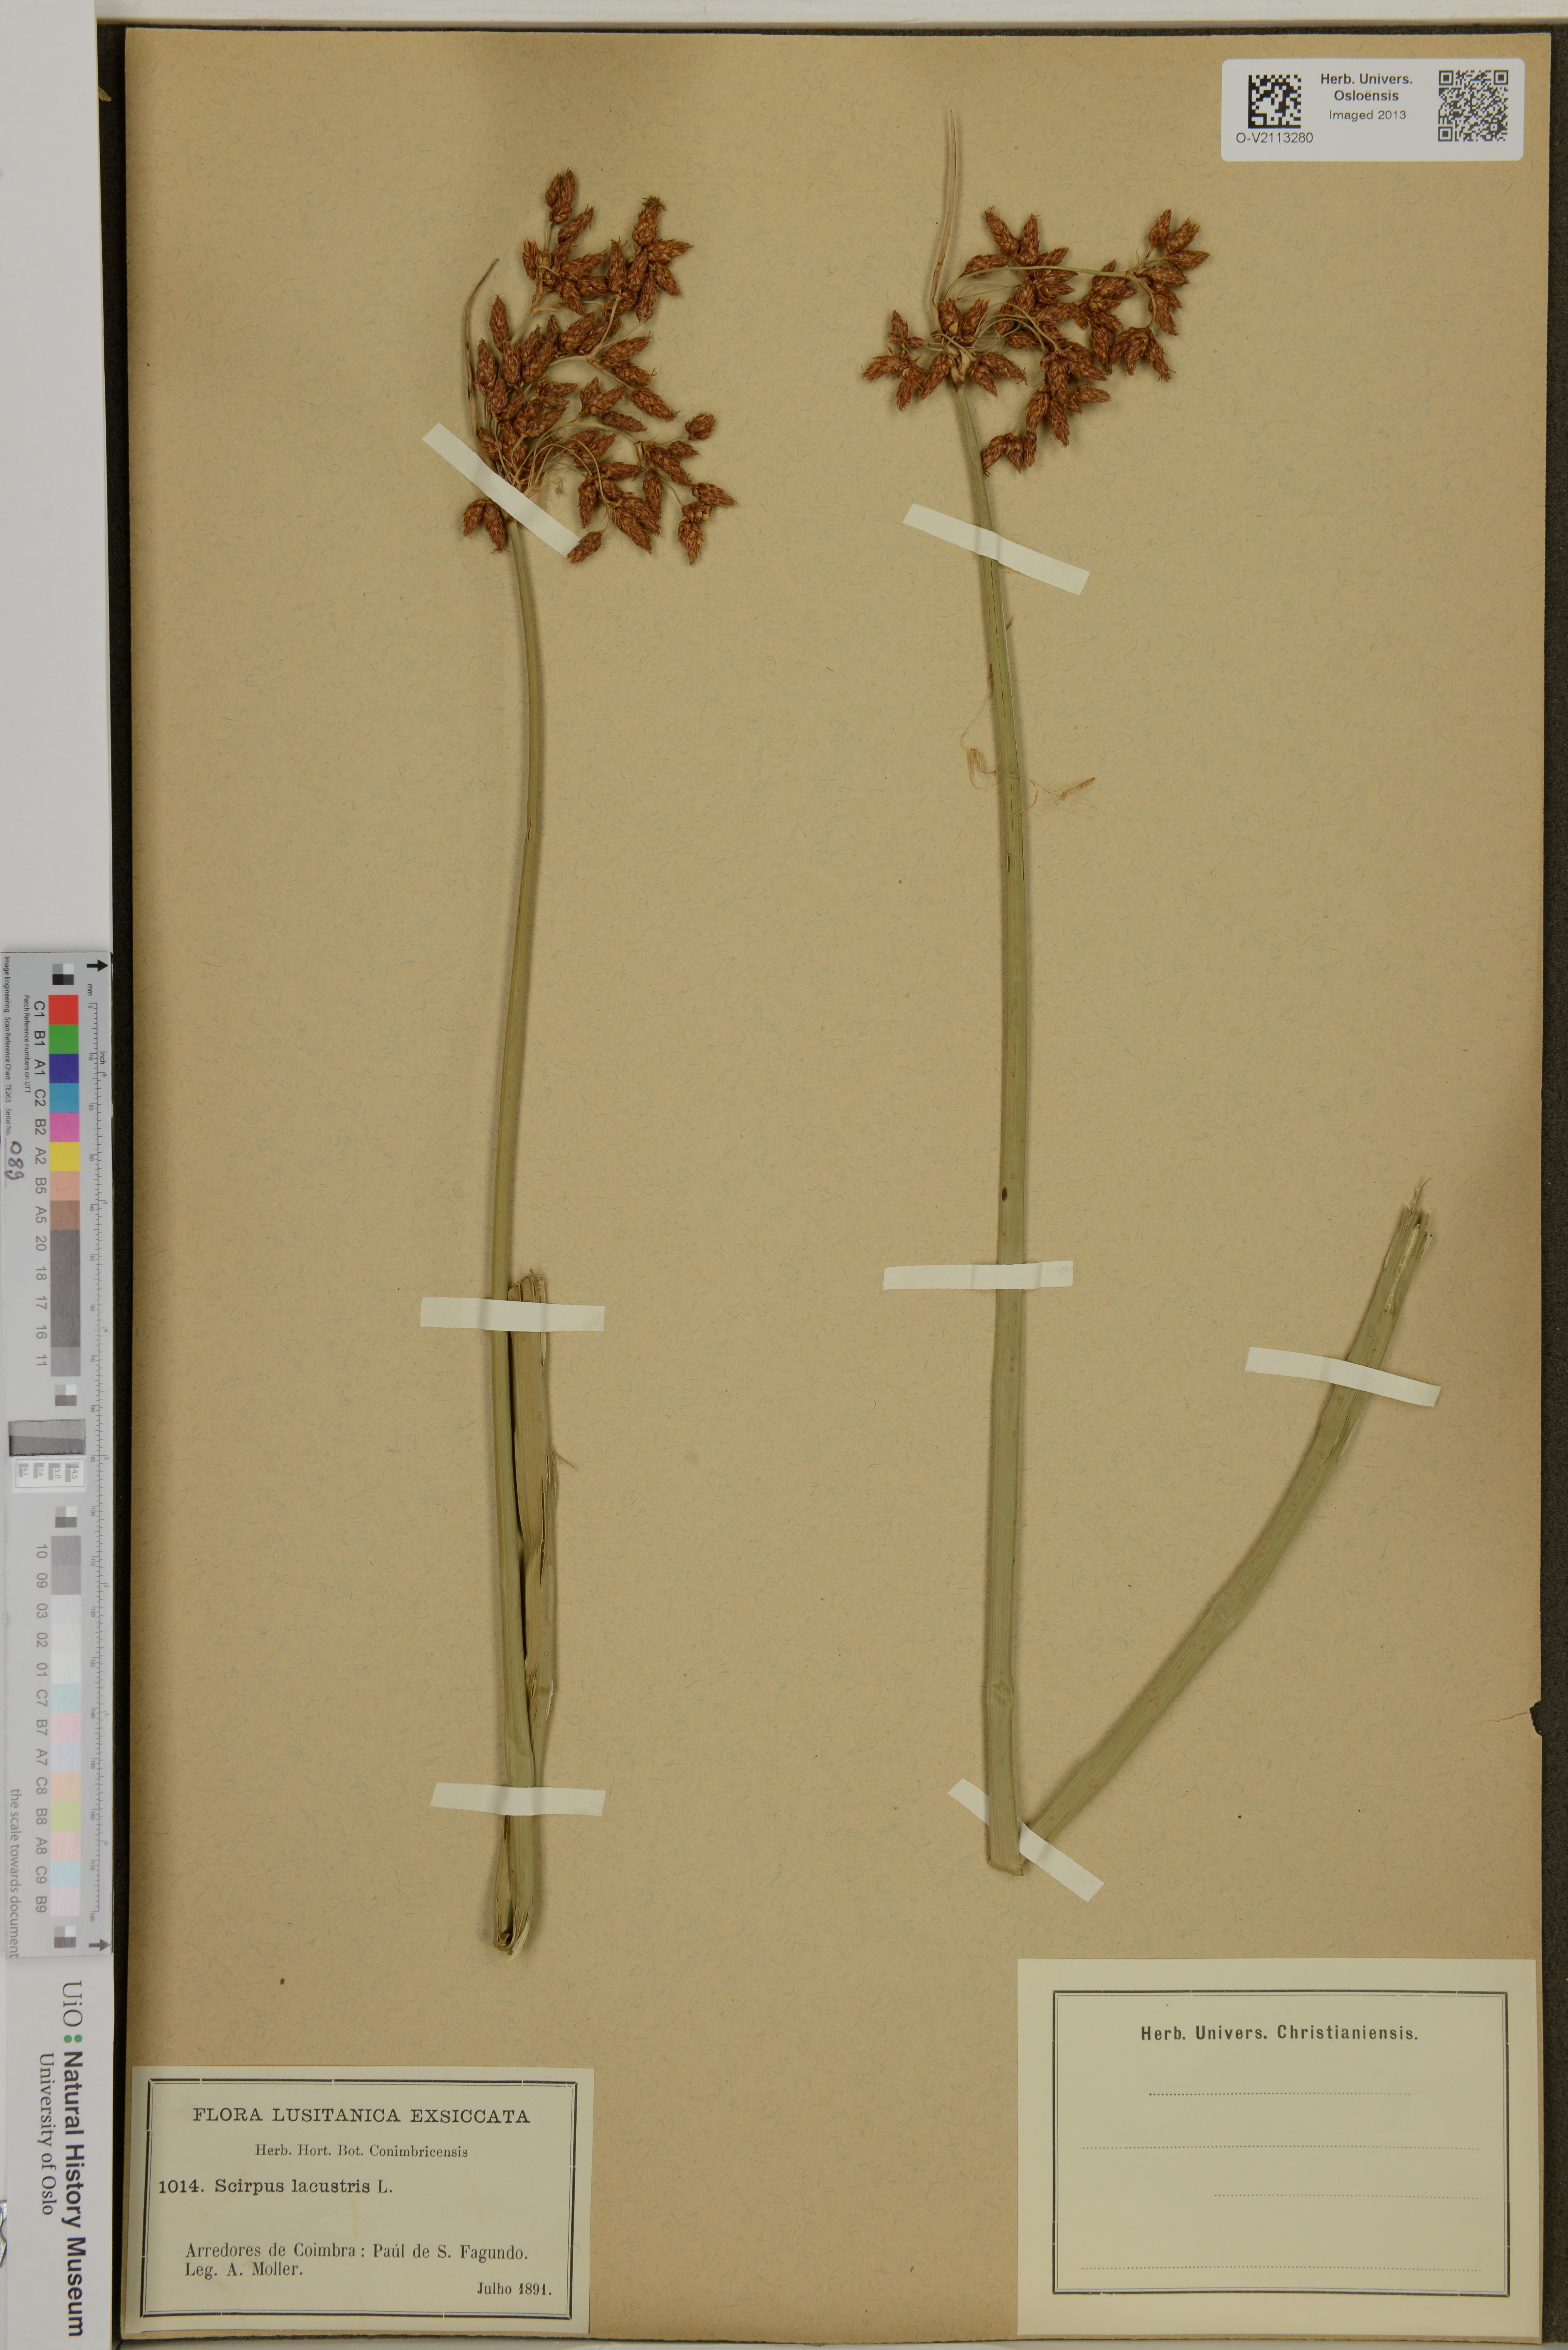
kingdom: Plantae
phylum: Tracheophyta
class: Liliopsida
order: Poales
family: Cyperaceae
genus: Schoenoplectus
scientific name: Schoenoplectus lacustris
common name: Common club-rush
